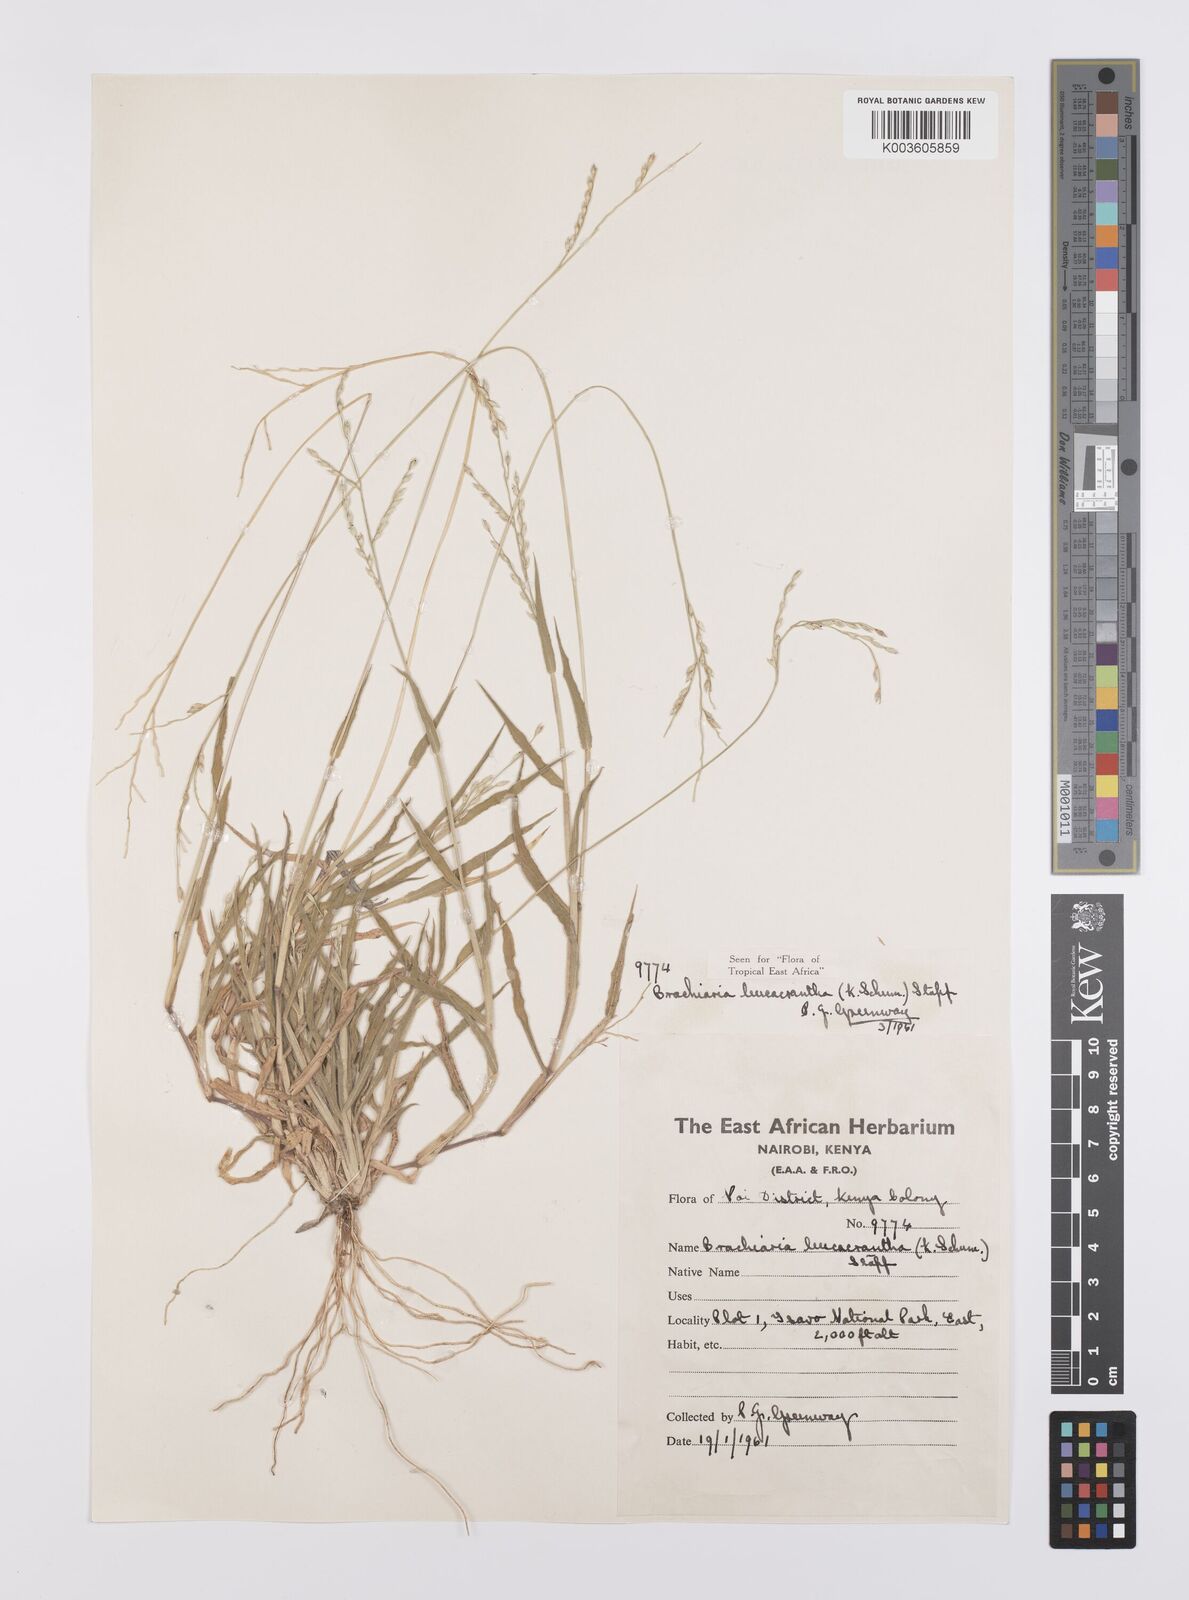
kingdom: Plantae
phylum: Tracheophyta
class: Liliopsida
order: Poales
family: Poaceae
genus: Urochloa
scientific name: Urochloa xantholeuca
